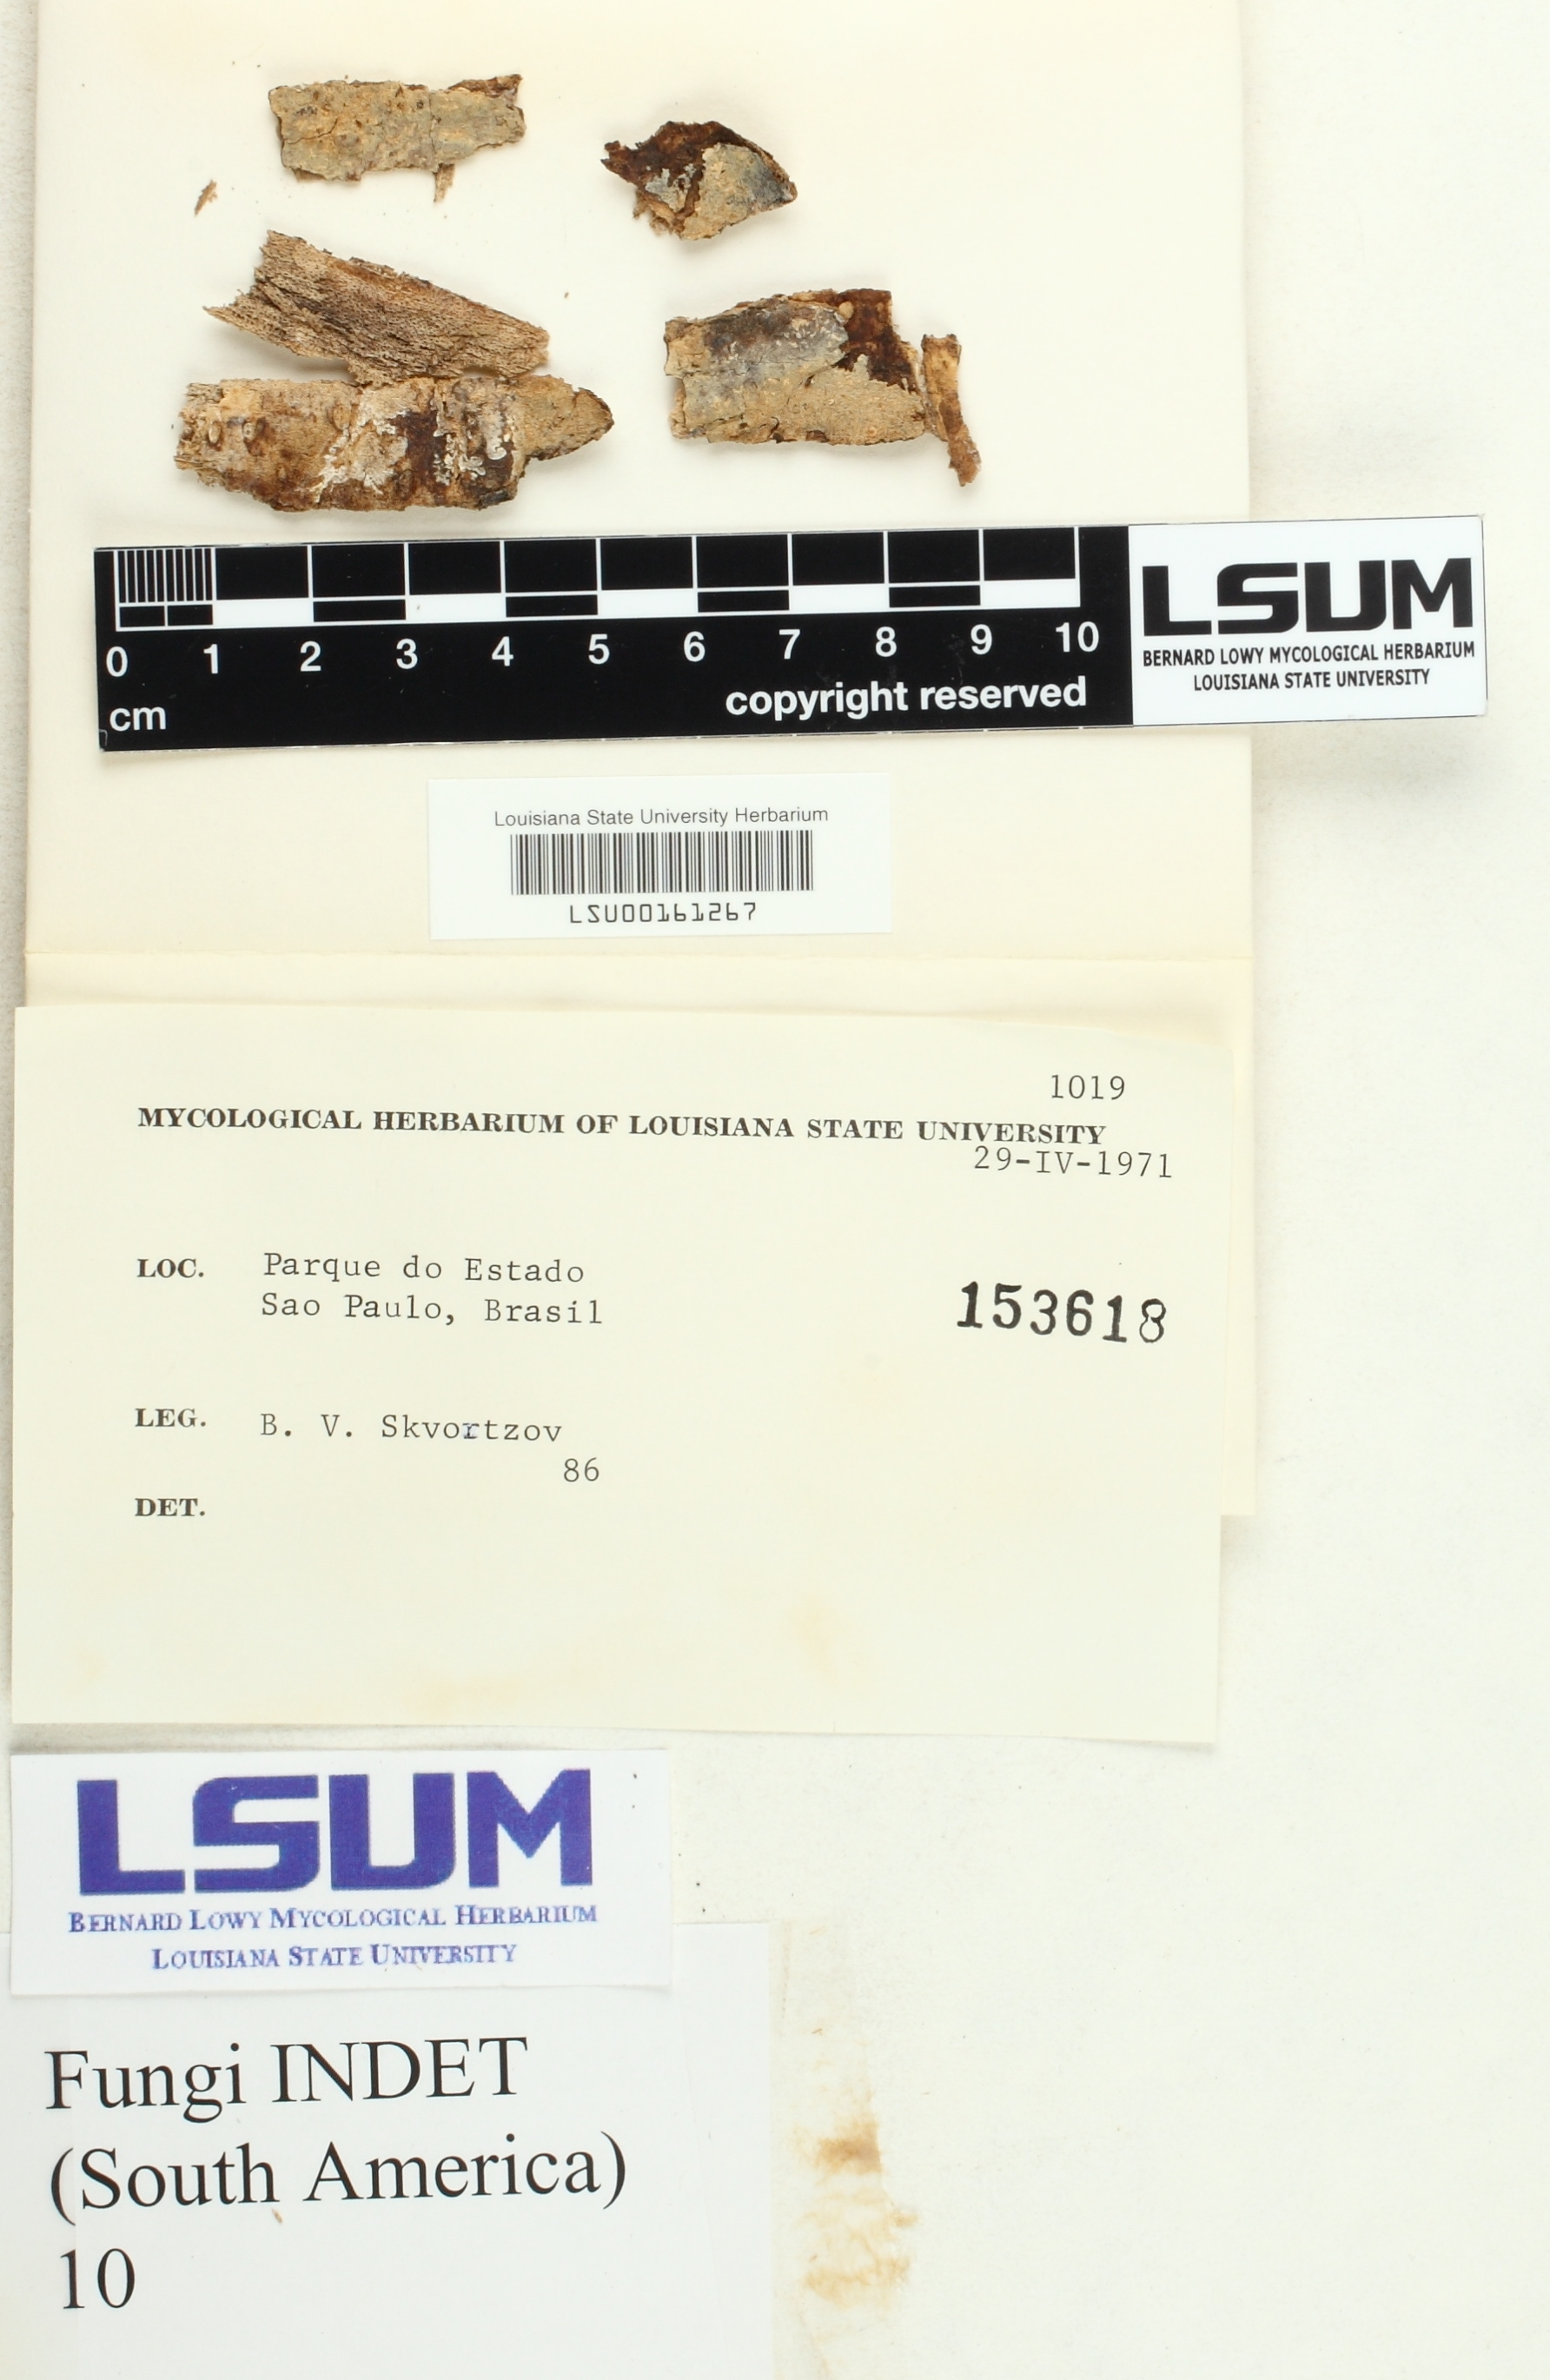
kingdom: Fungi
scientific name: Fungi
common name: Fungi
